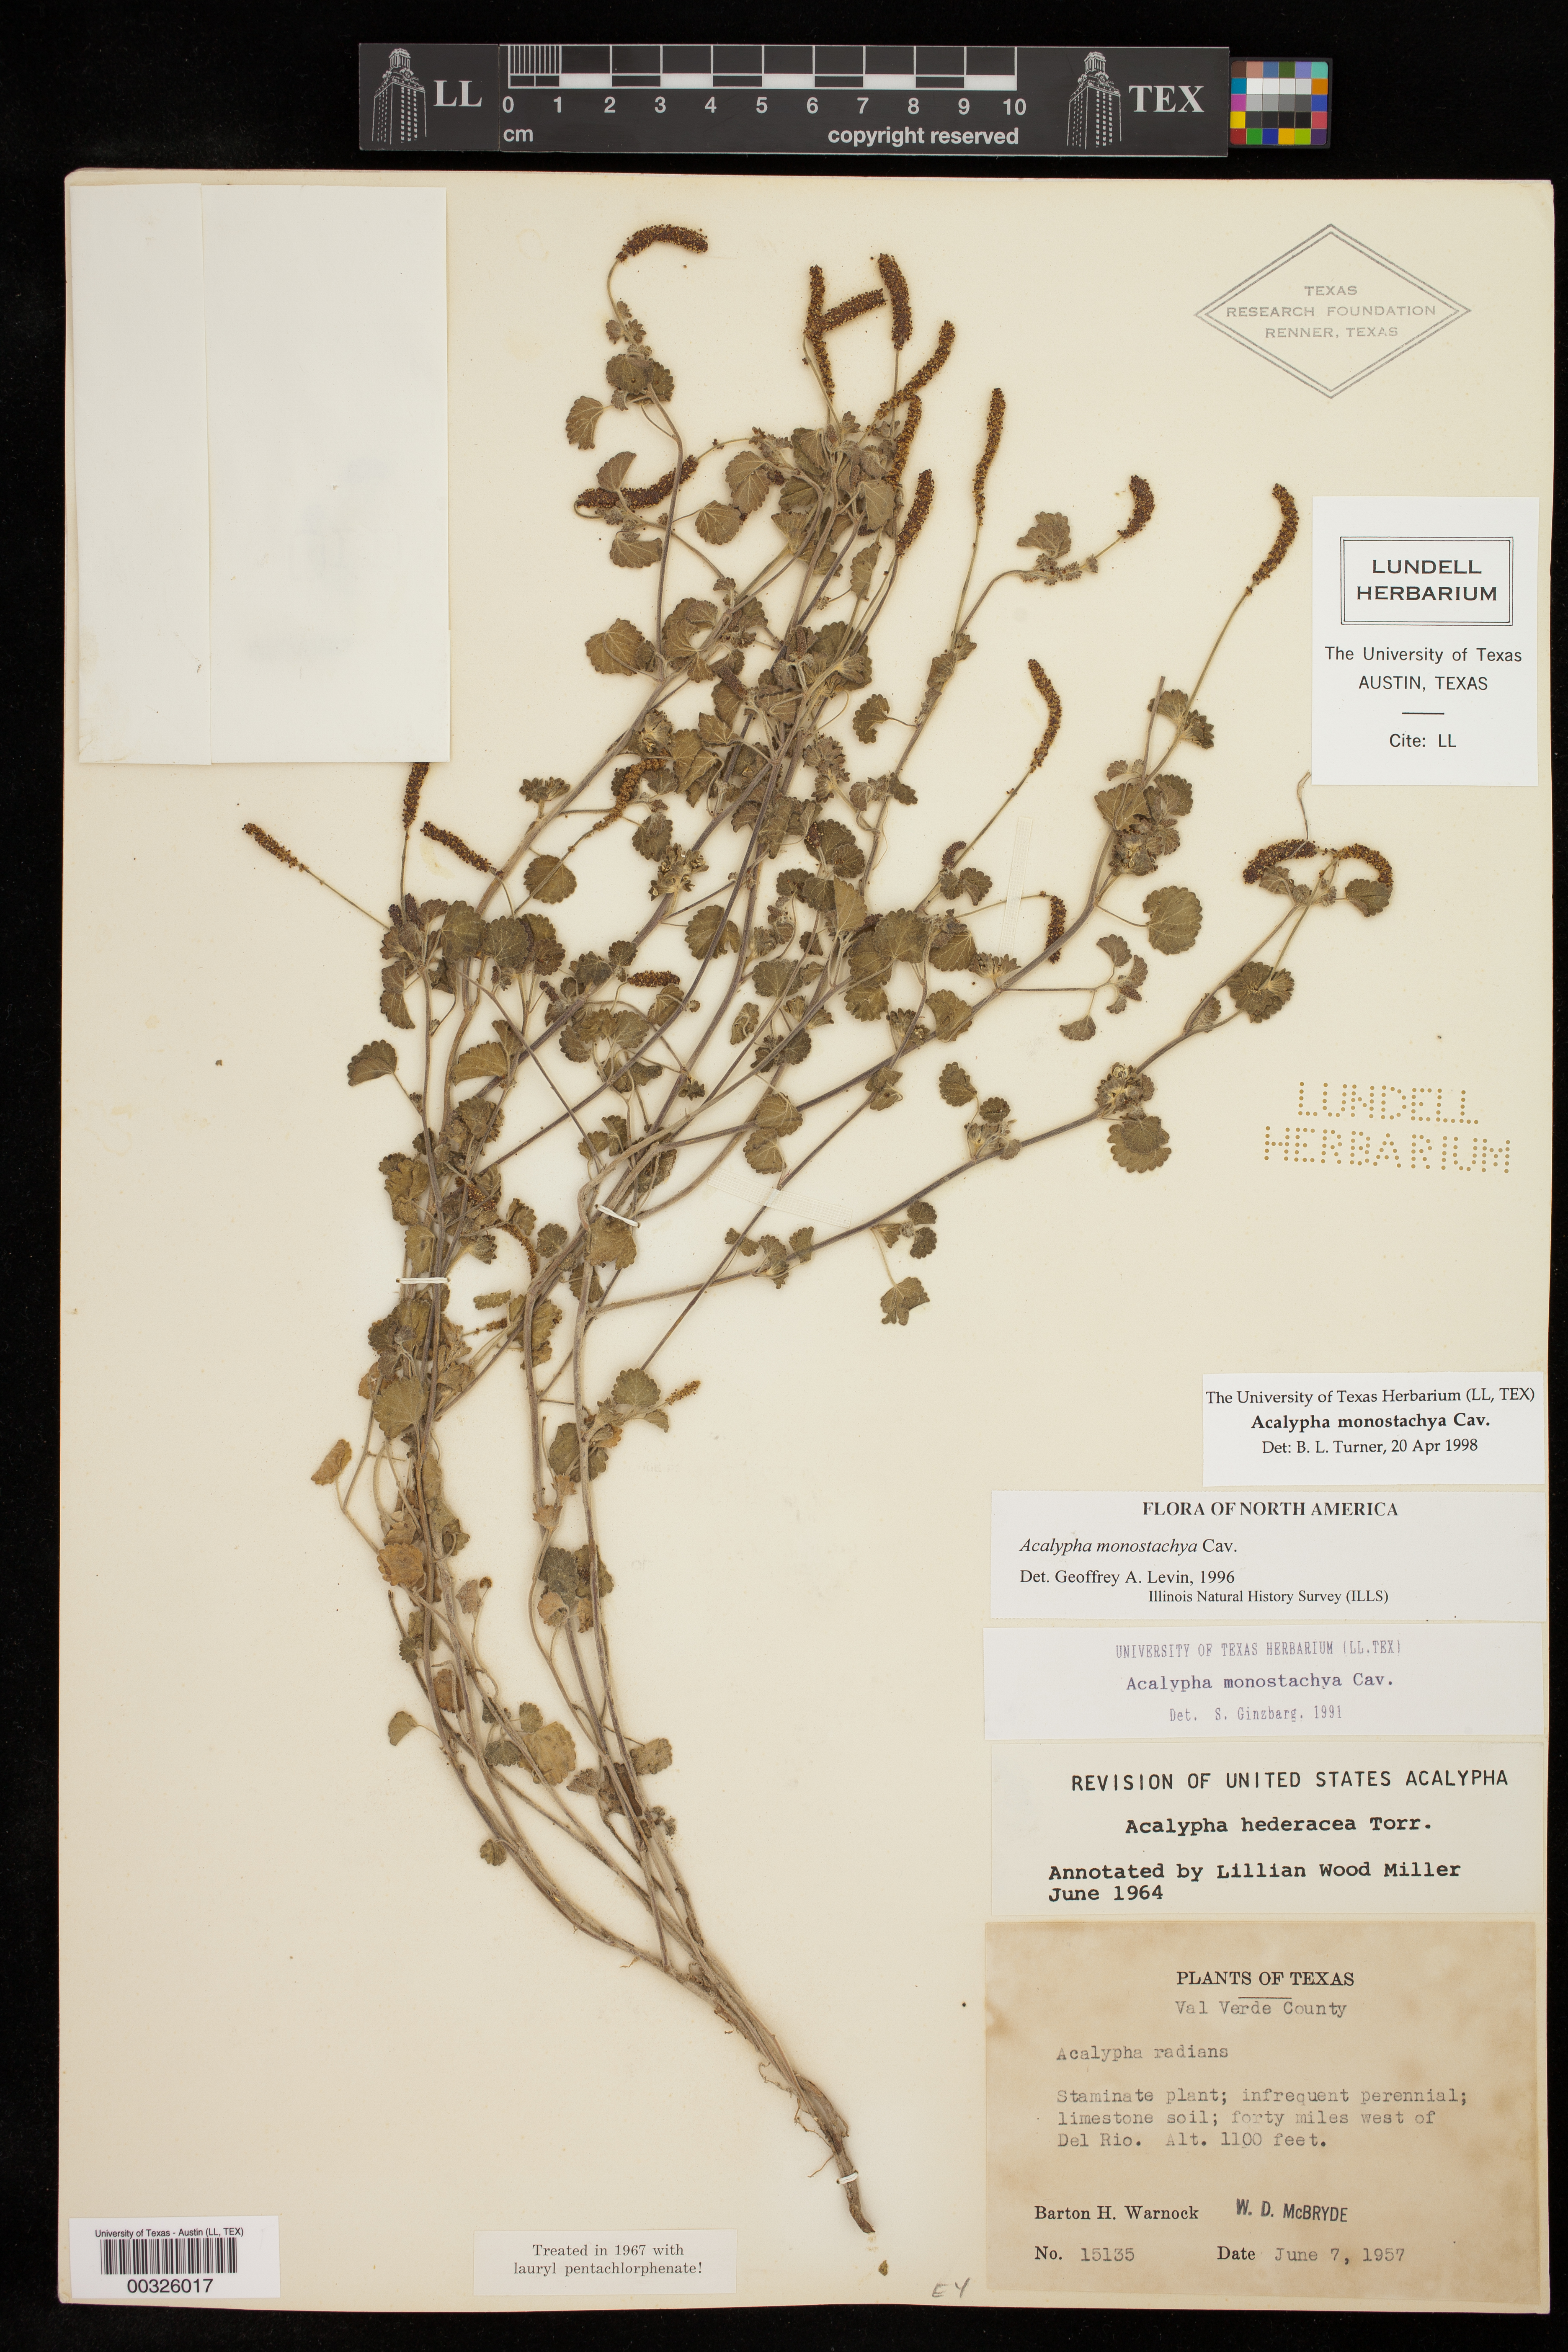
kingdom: Plantae
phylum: Tracheophyta
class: Magnoliopsida
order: Malpighiales
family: Euphorbiaceae
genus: Acalypha
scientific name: Acalypha monostachya
